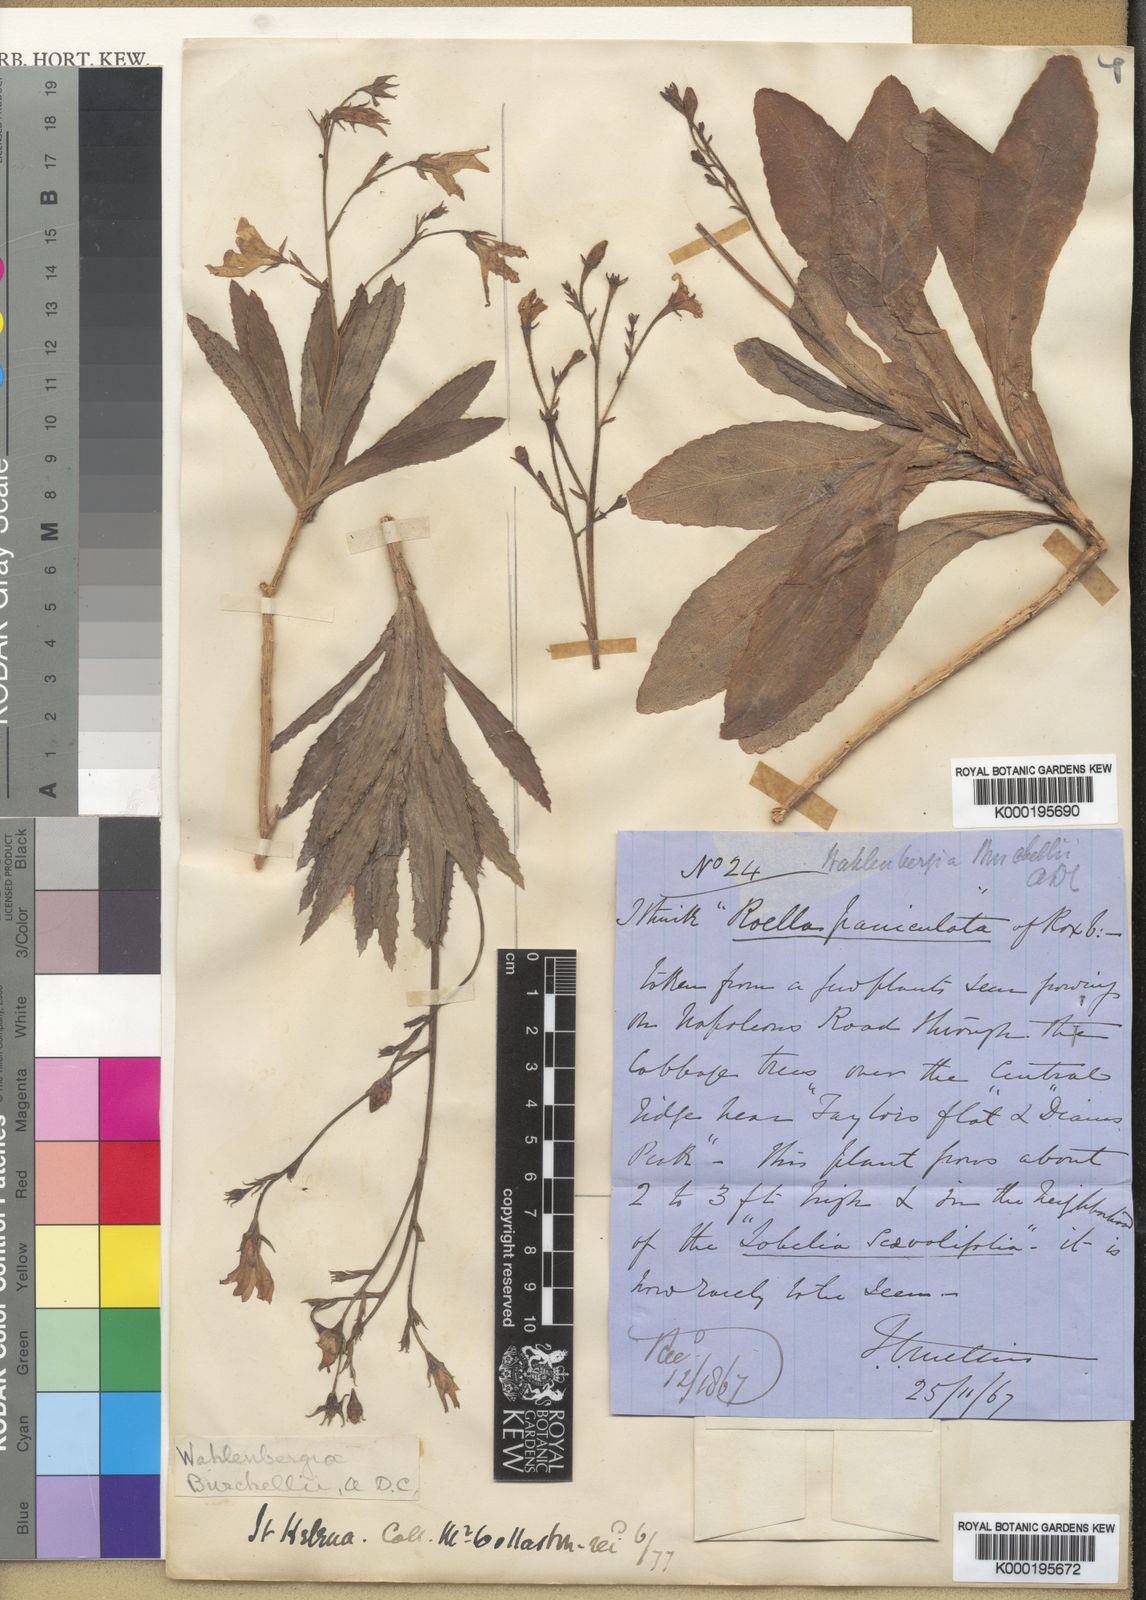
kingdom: Plantae
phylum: Tracheophyta
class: Magnoliopsida
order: Asterales
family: Campanulaceae
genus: Wahlenbergia
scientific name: Wahlenbergia roxburghii
